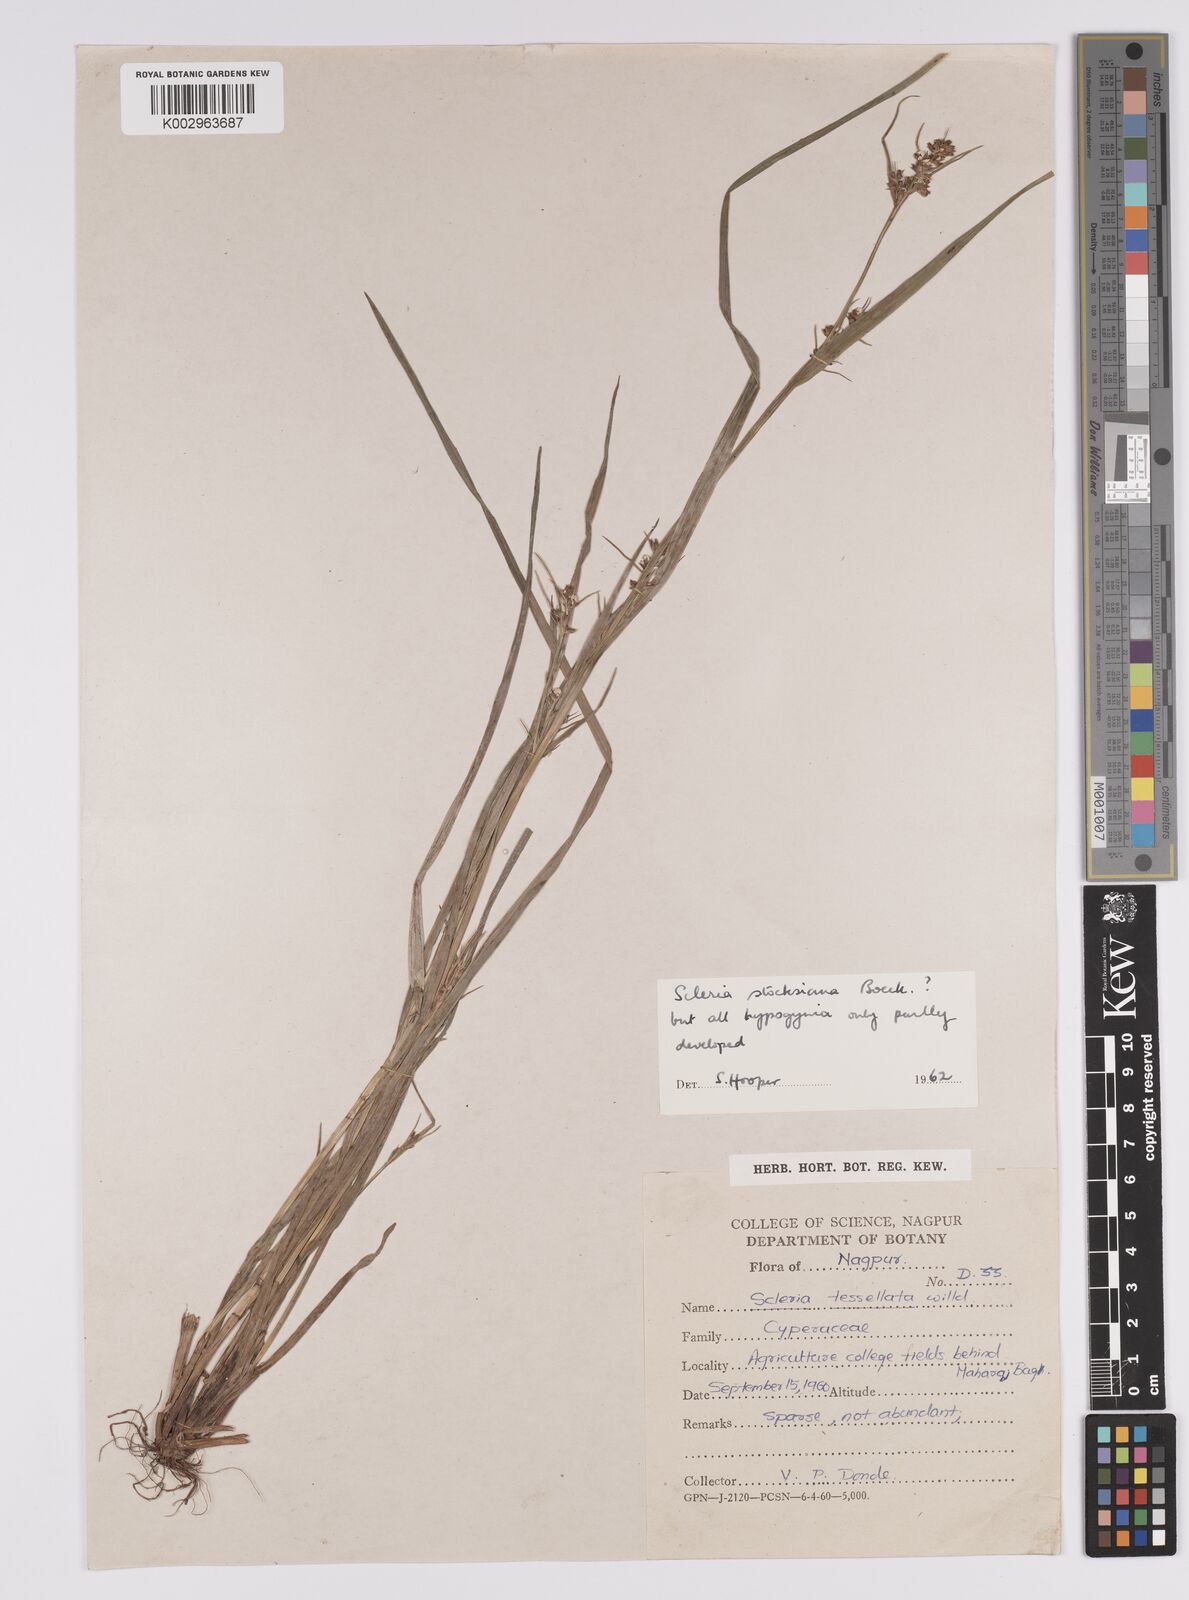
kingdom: Plantae
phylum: Tracheophyta
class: Liliopsida
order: Poales
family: Cyperaceae
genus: Scleria
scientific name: Scleria stocksiana
